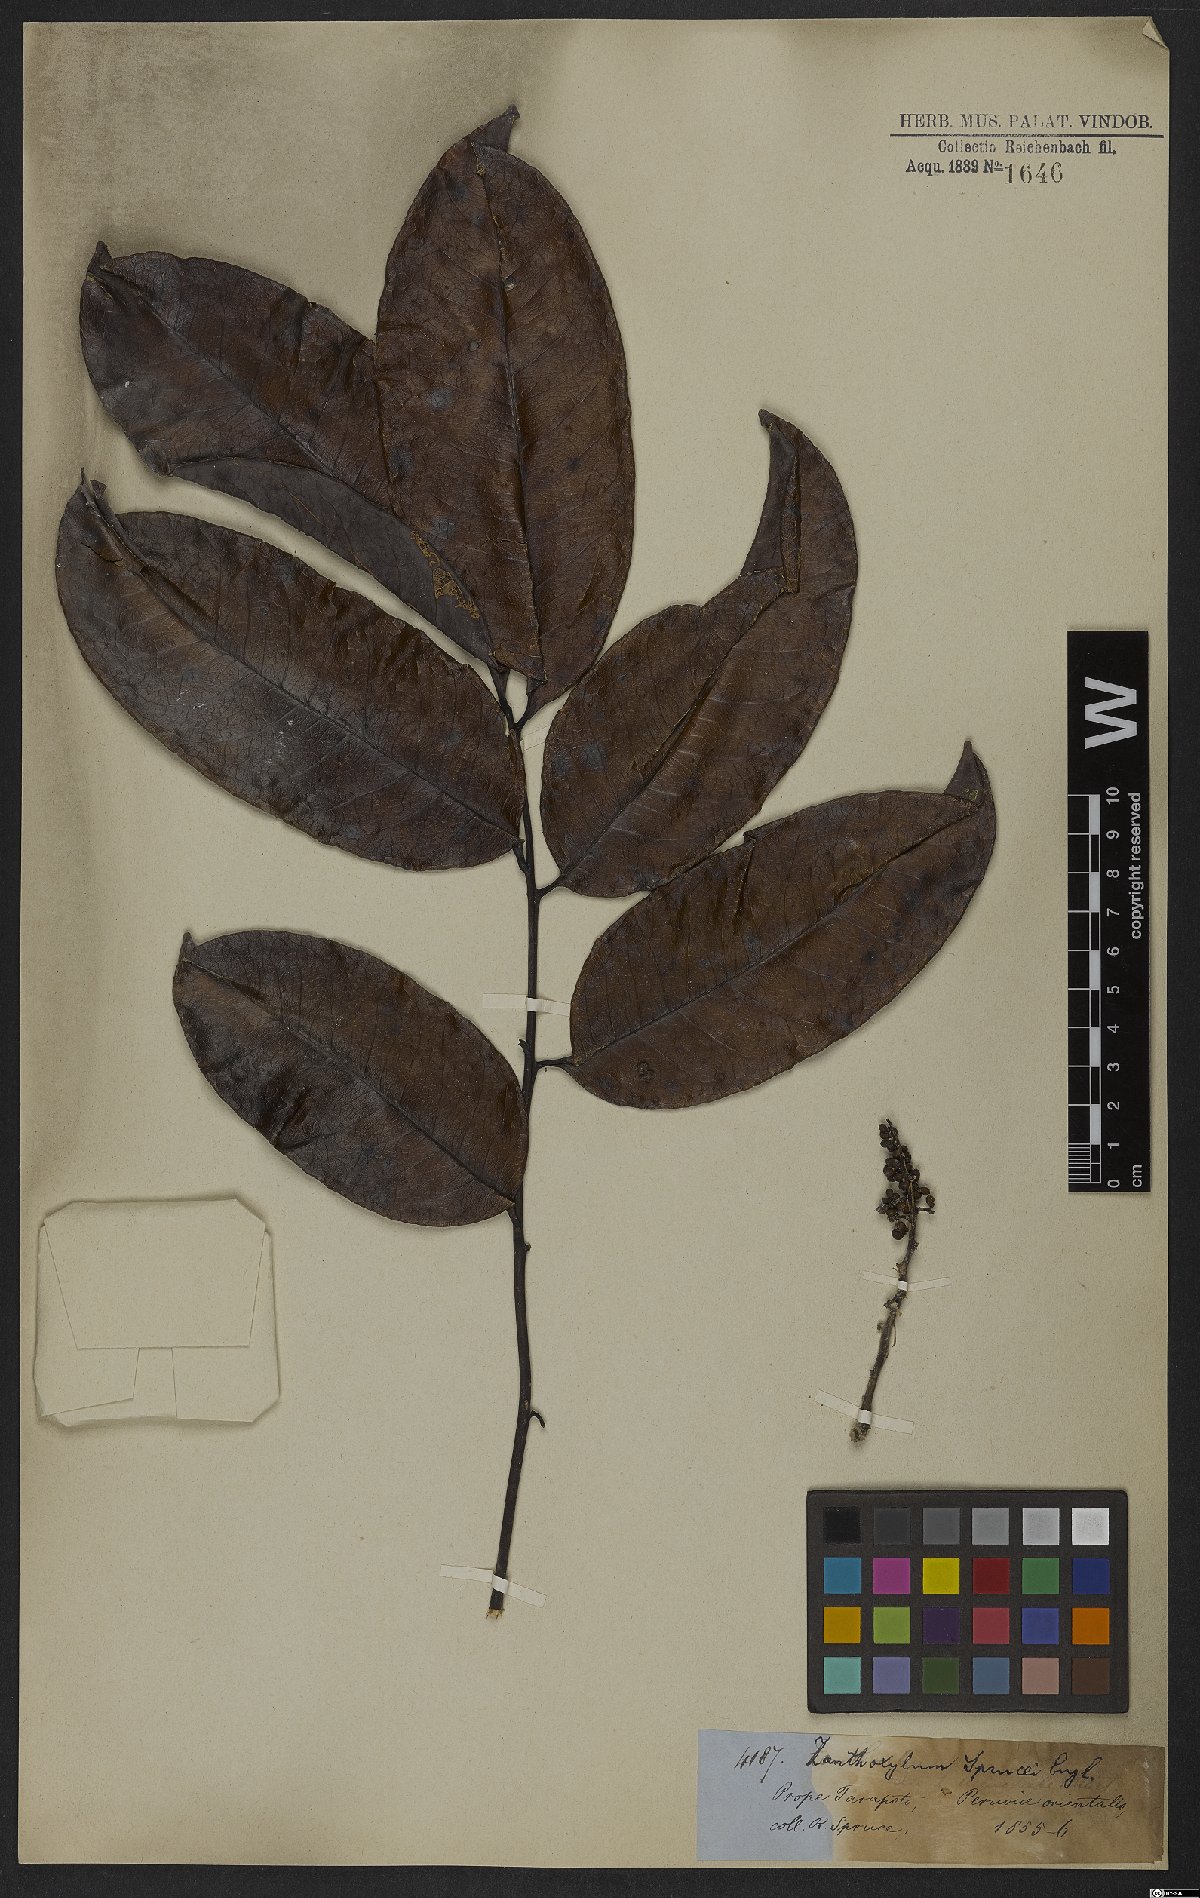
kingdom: Plantae
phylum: Tracheophyta
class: Magnoliopsida
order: Sapindales
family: Rutaceae
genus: Zanthoxylum
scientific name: Zanthoxylum sprucei
